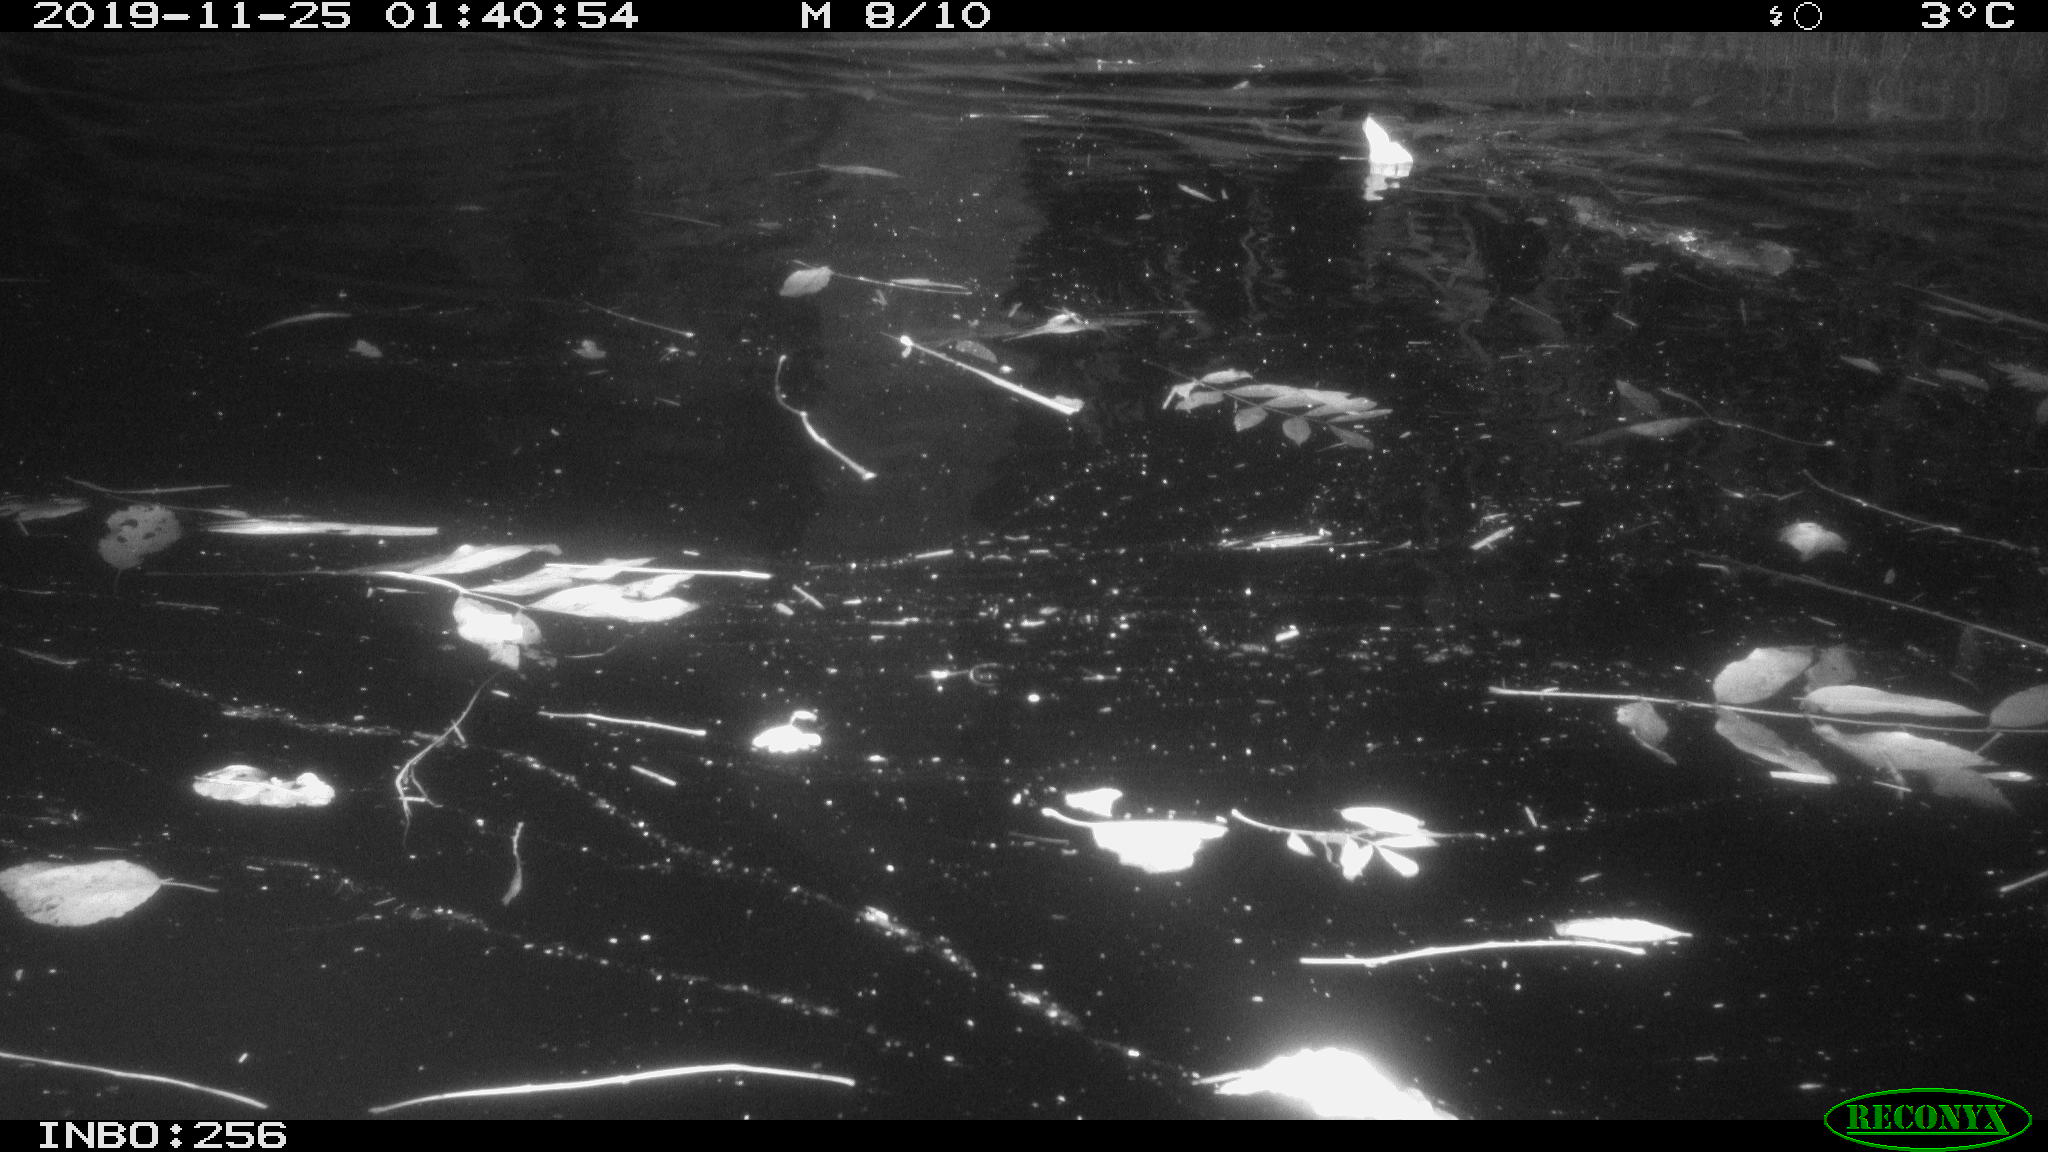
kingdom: Animalia
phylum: Chordata
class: Mammalia
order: Rodentia
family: Cricetidae
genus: Ondatra
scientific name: Ondatra zibethicus
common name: Muskrat
